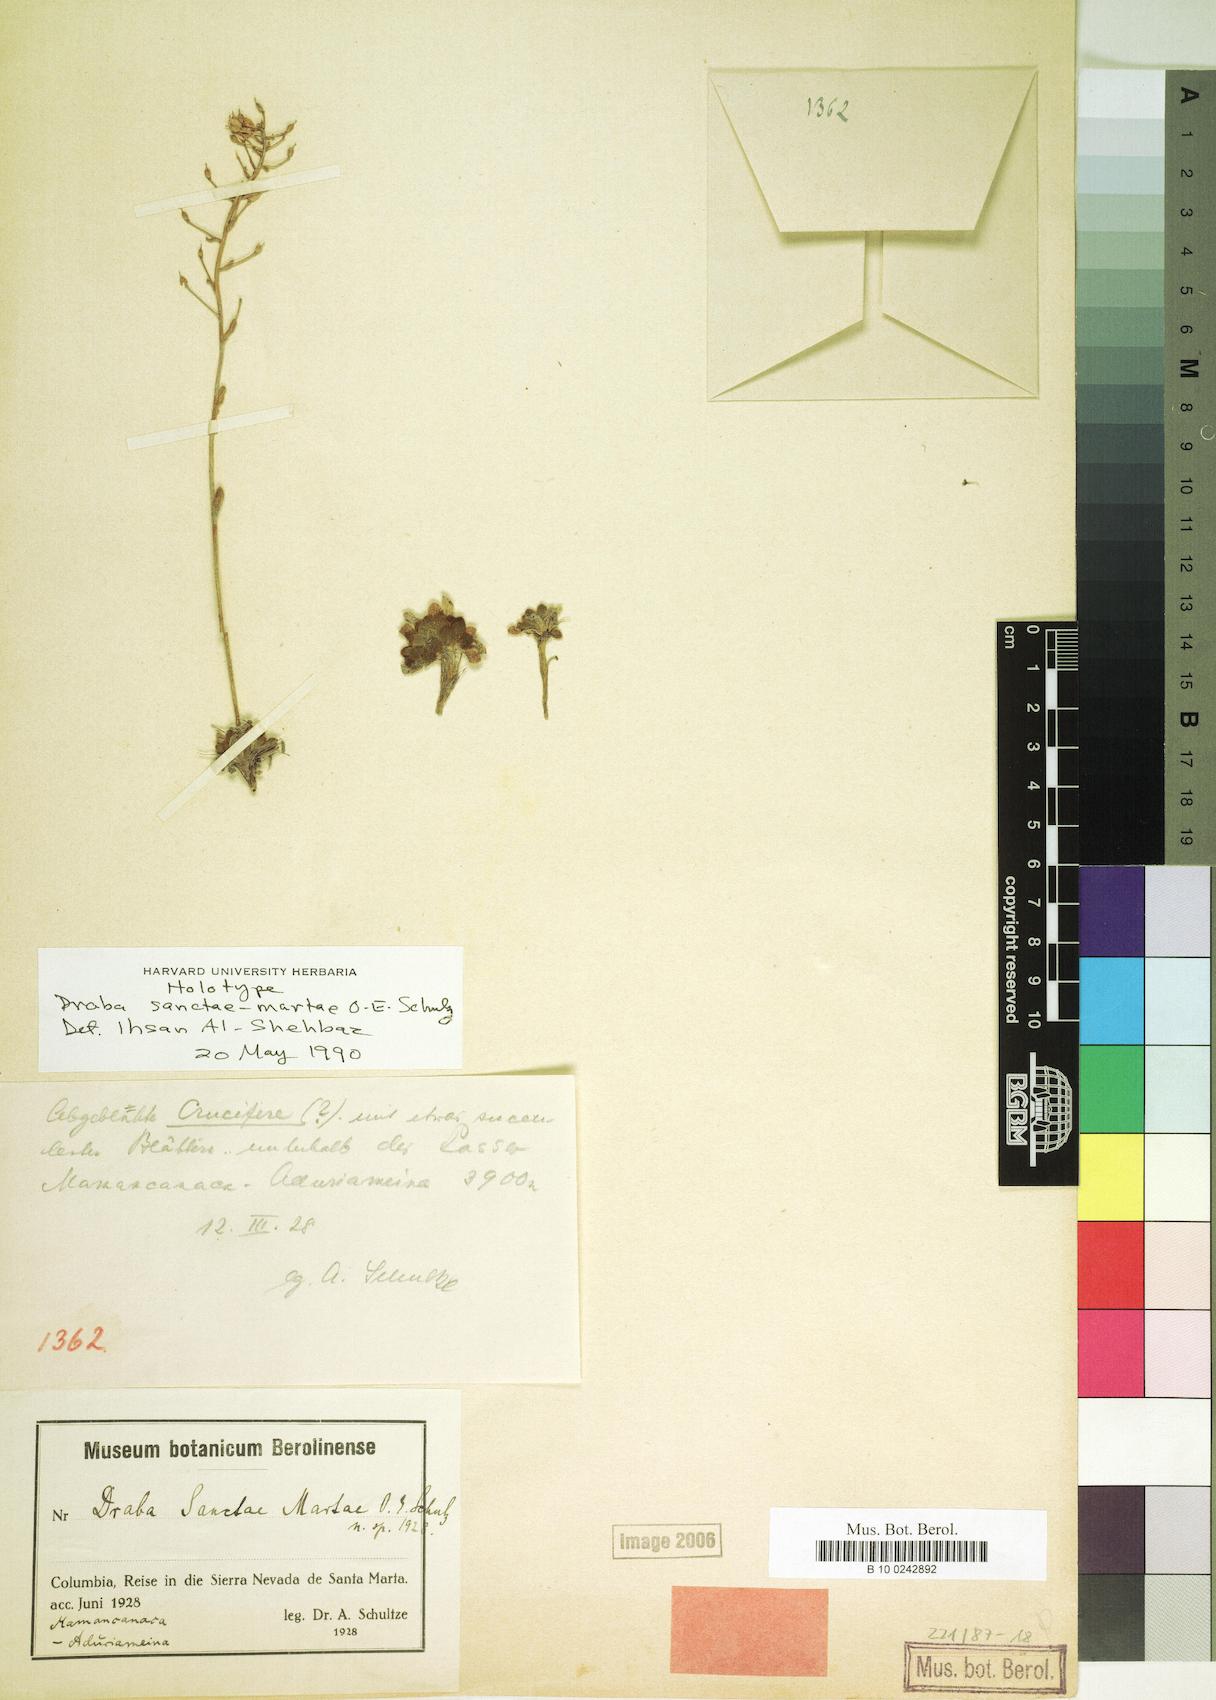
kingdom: Plantae
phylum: Tracheophyta
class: Magnoliopsida
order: Brassicales
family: Brassicaceae
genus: Draba
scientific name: Draba sanctae-martae
